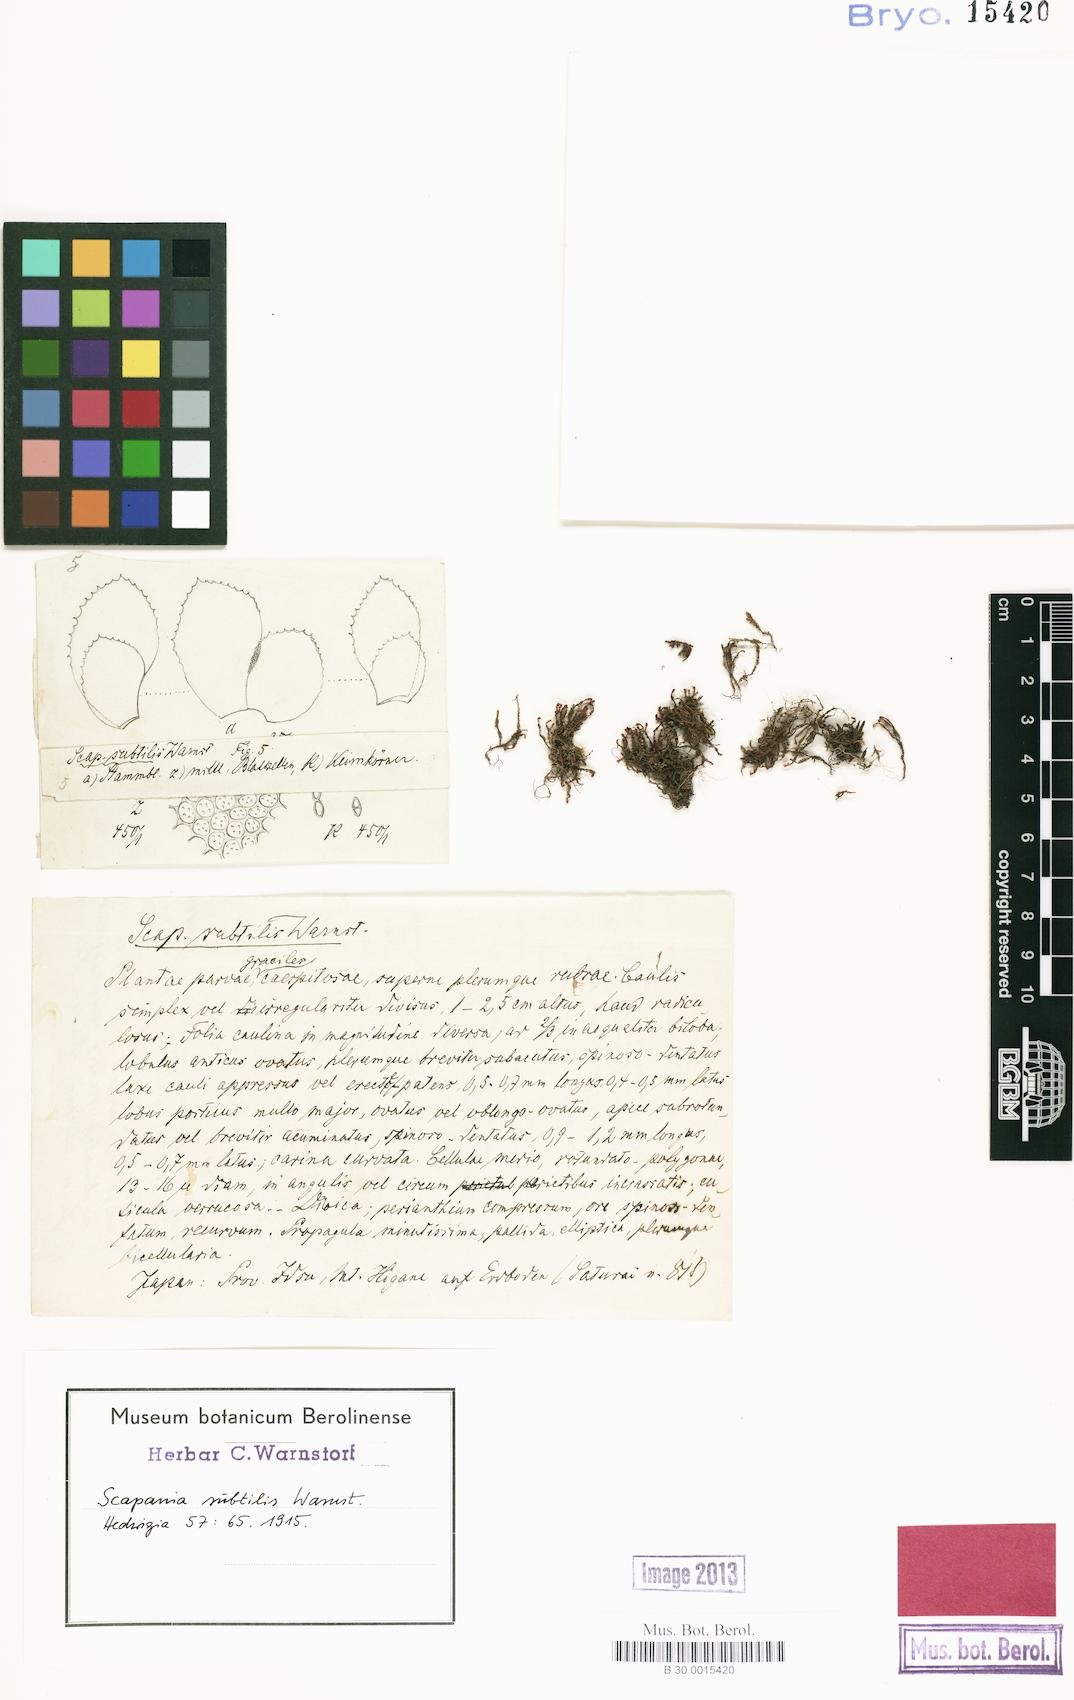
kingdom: Plantae
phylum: Marchantiophyta
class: Jungermanniopsida
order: Jungermanniales
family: Scapaniaceae
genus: Scapania
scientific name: Scapania stephanii
